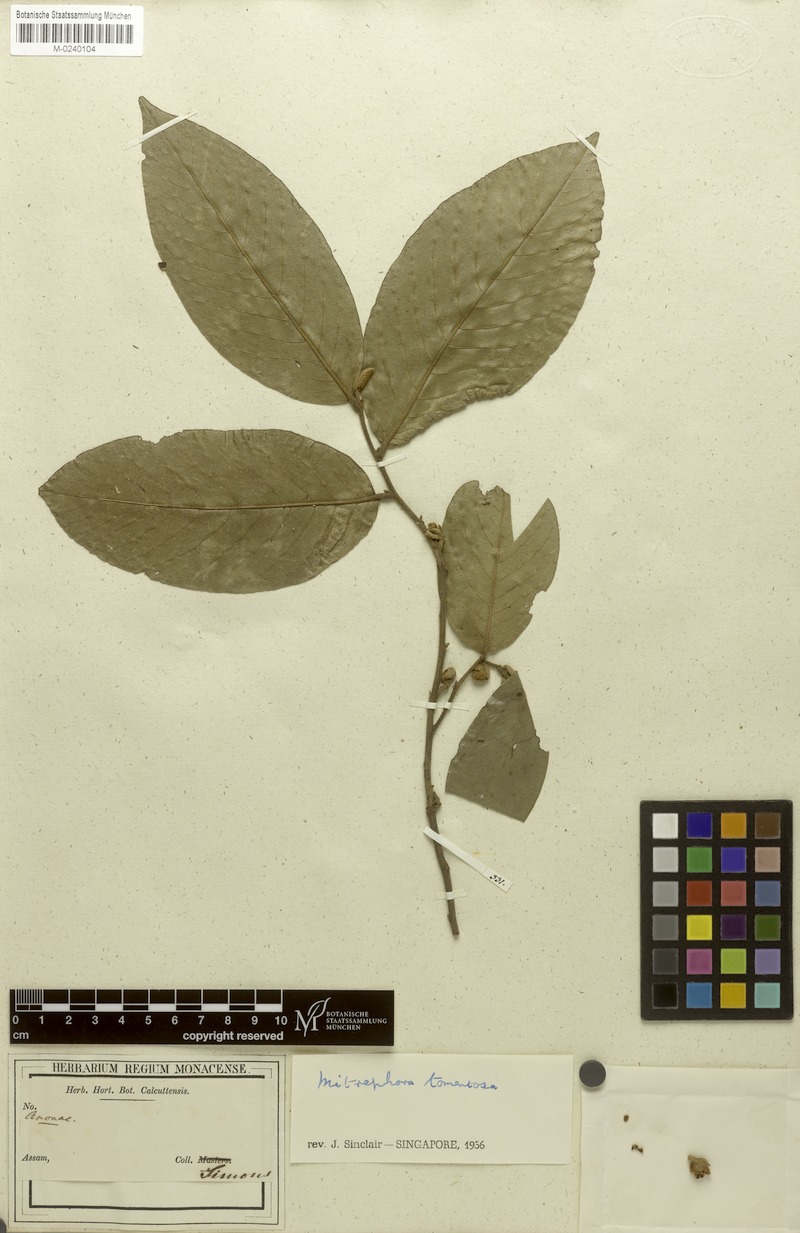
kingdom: Plantae
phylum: Tracheophyta
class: Magnoliopsida
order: Magnoliales
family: Annonaceae
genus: Mitrephora
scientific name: Mitrephora tomentosa
